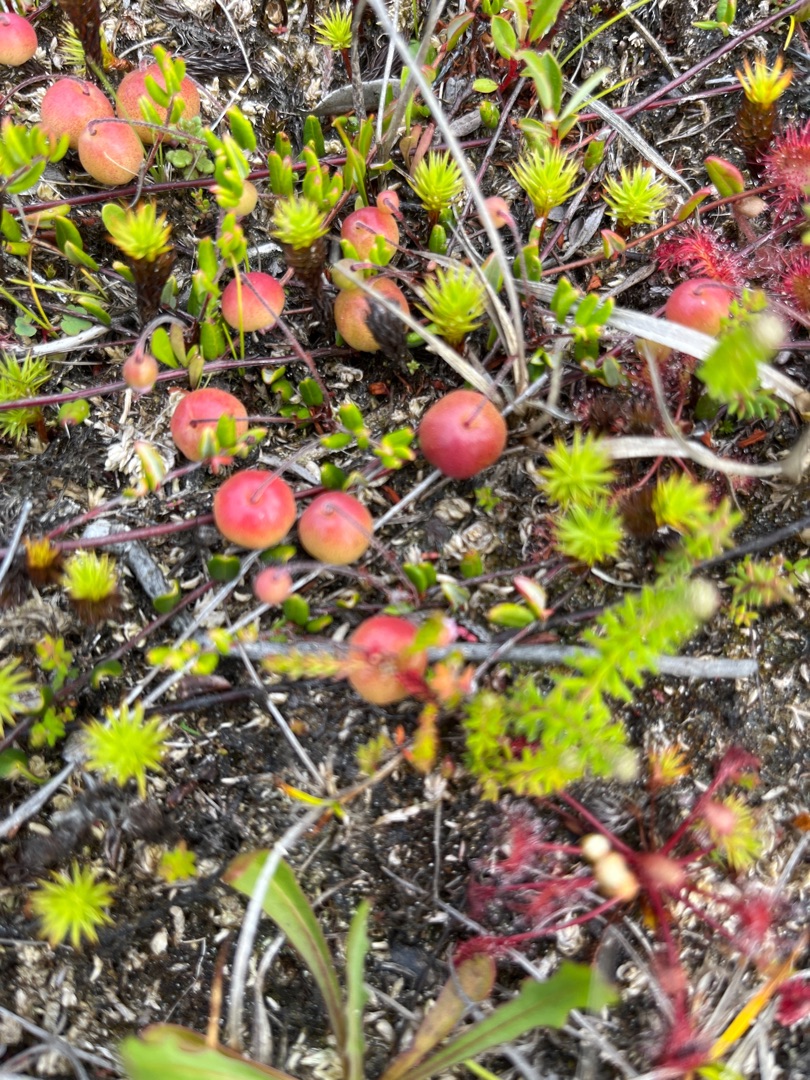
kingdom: Plantae
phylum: Tracheophyta
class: Magnoliopsida
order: Ericales
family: Ericaceae
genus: Vaccinium
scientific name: Vaccinium oxycoccos
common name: Tranebær
